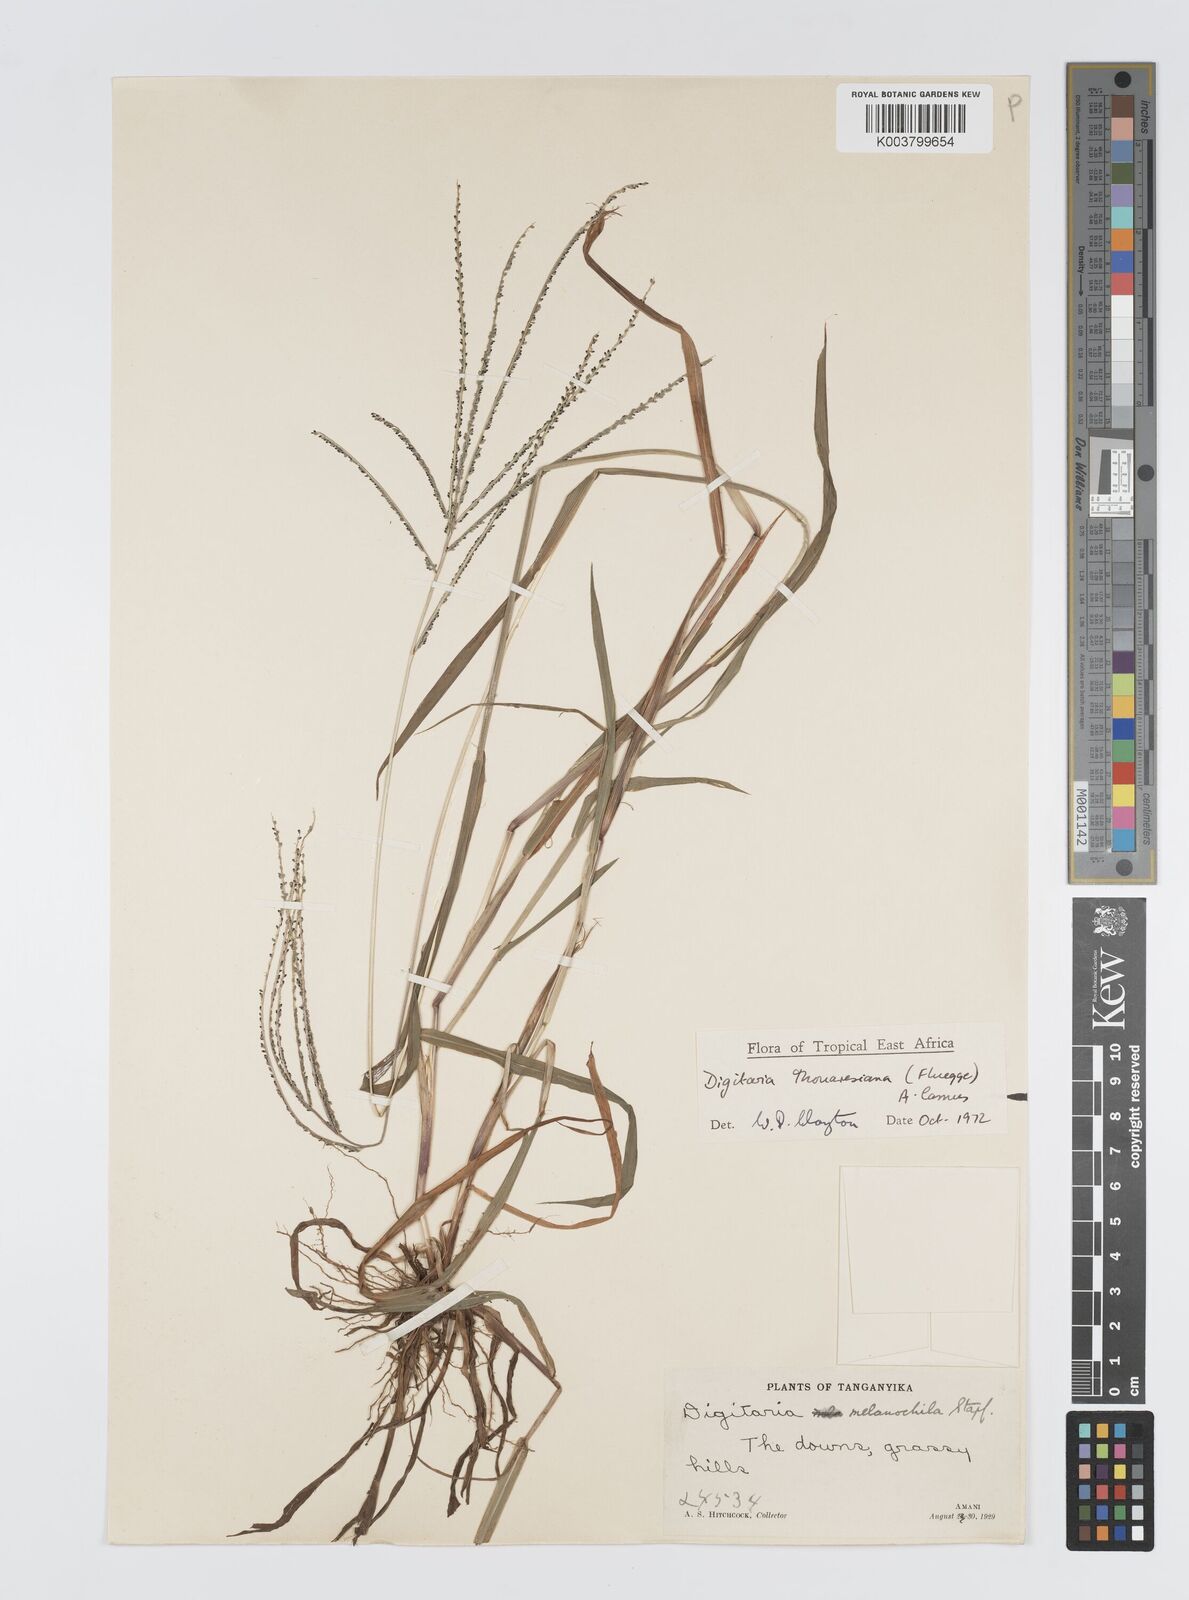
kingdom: Plantae
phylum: Tracheophyta
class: Liliopsida
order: Poales
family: Poaceae
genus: Digitaria
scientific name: Digitaria thouarsiana
